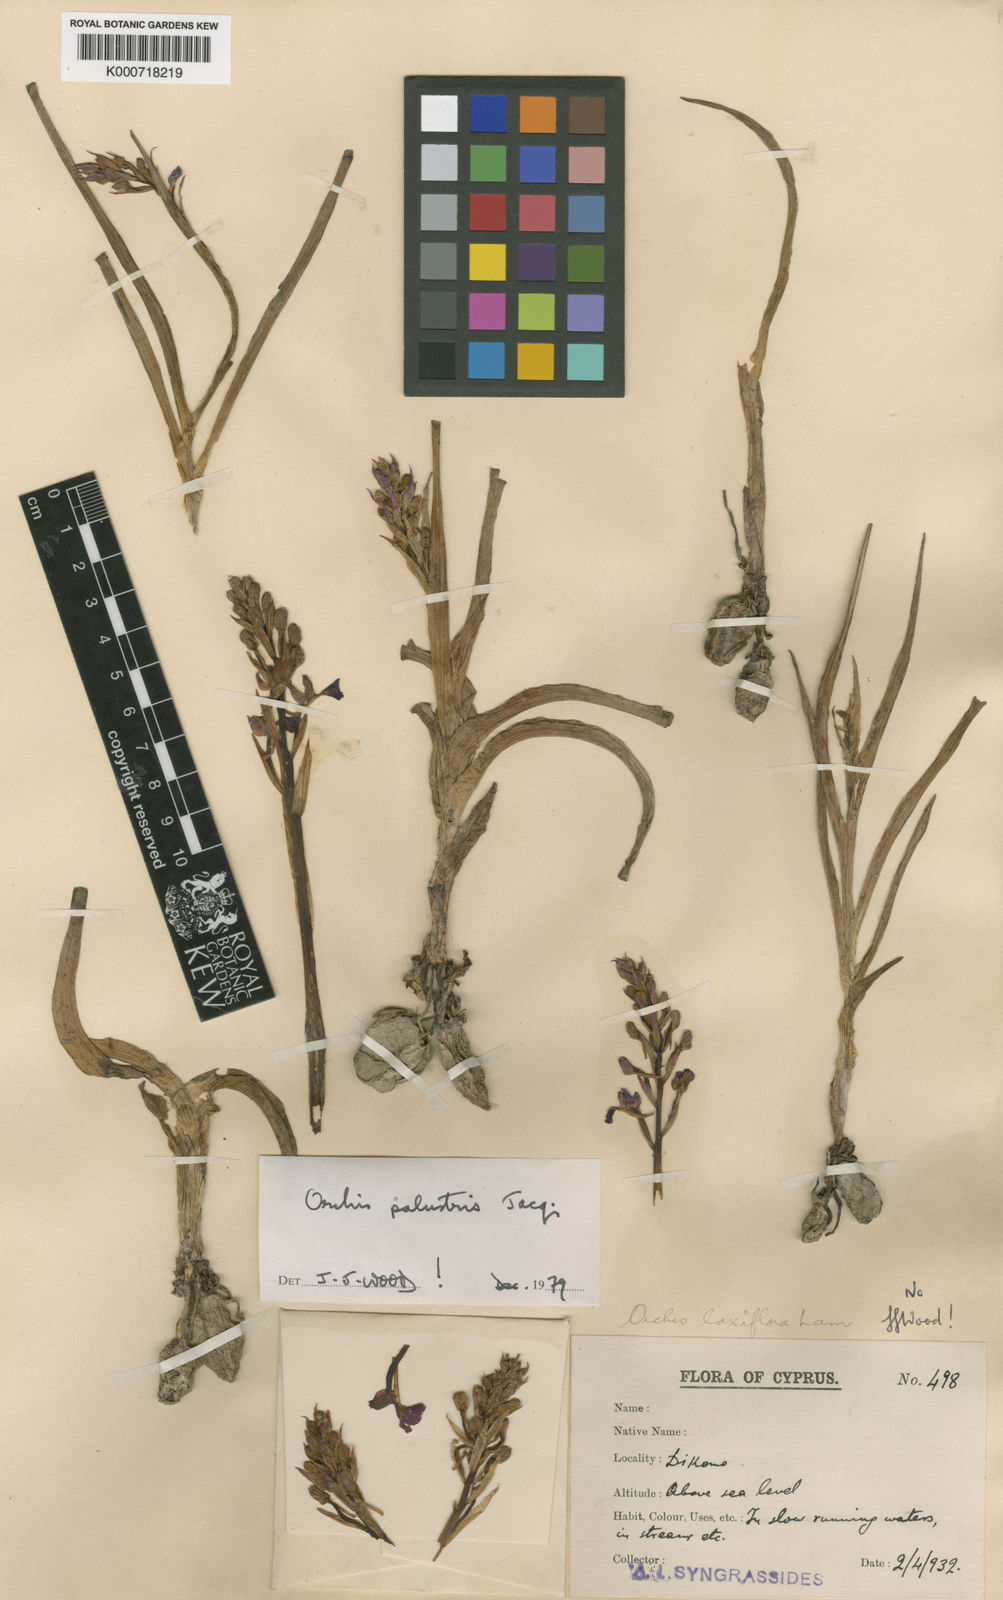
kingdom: Plantae
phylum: Tracheophyta
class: Liliopsida
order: Asparagales
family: Orchidaceae
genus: Anacamptis
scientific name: Anacamptis palustris
